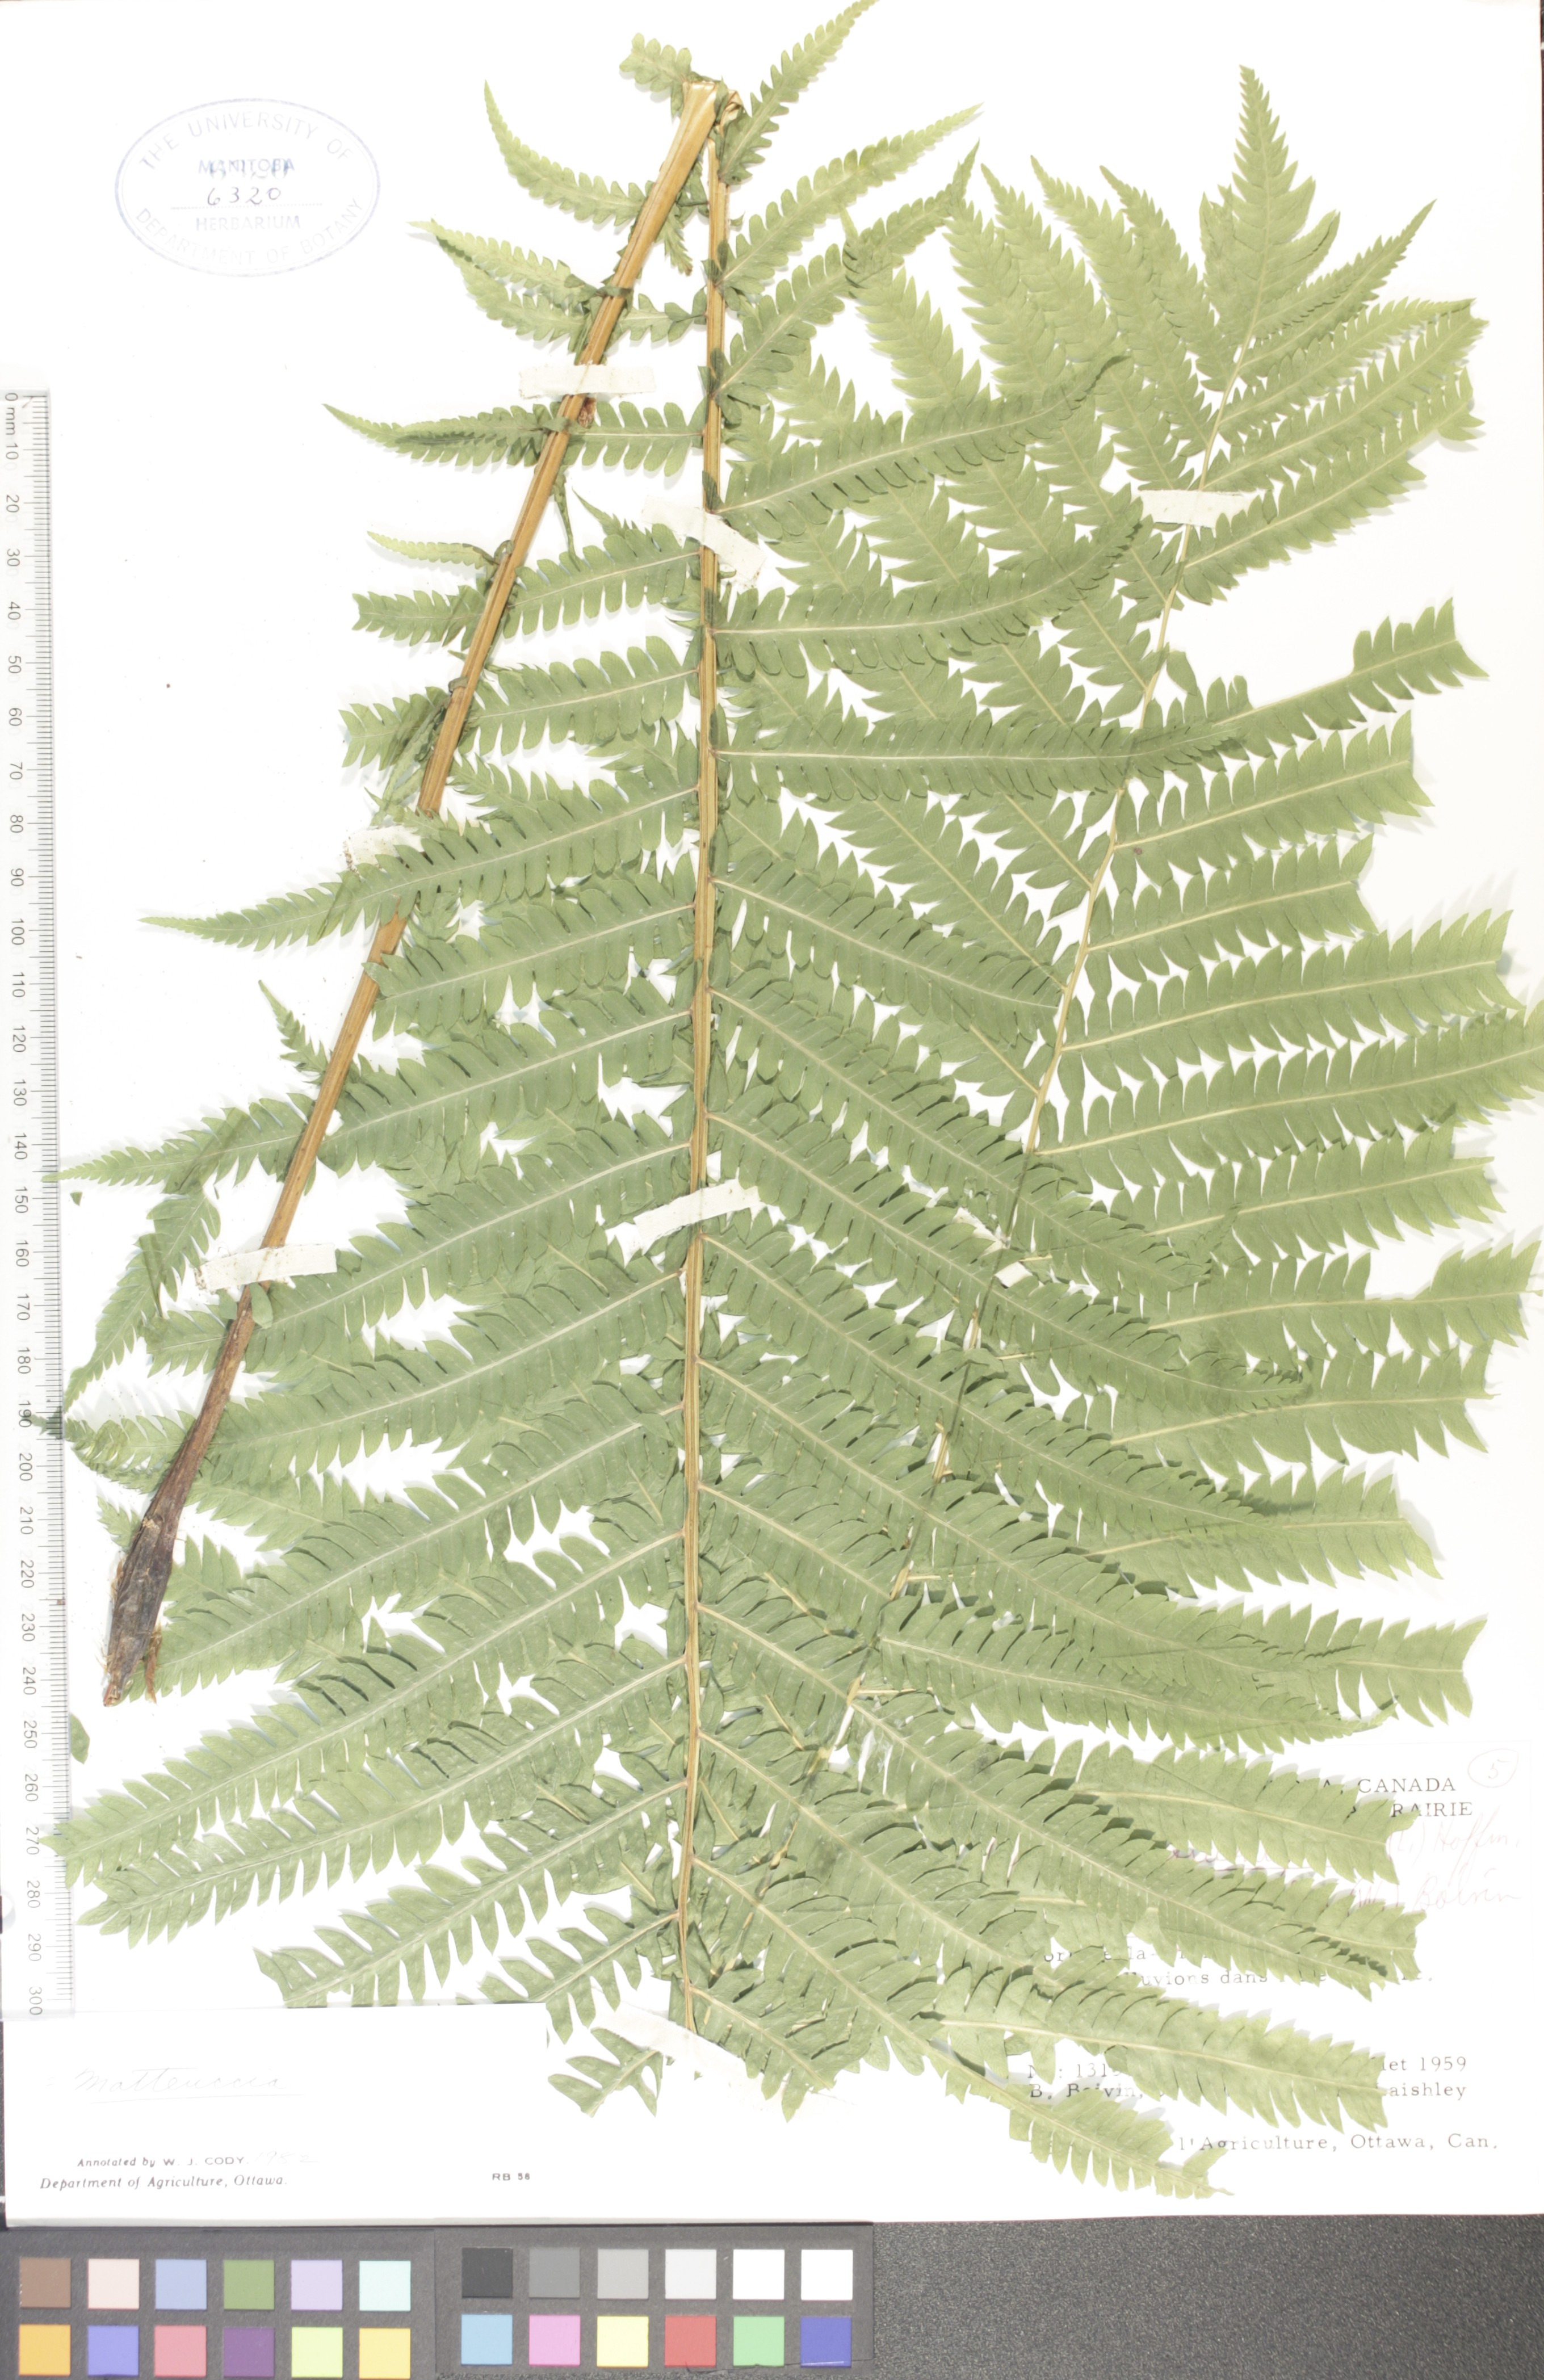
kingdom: Plantae
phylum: Tracheophyta
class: Polypodiopsida
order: Polypodiales
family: Onocleaceae
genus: Matteuccia
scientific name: Matteuccia pensylvanica
